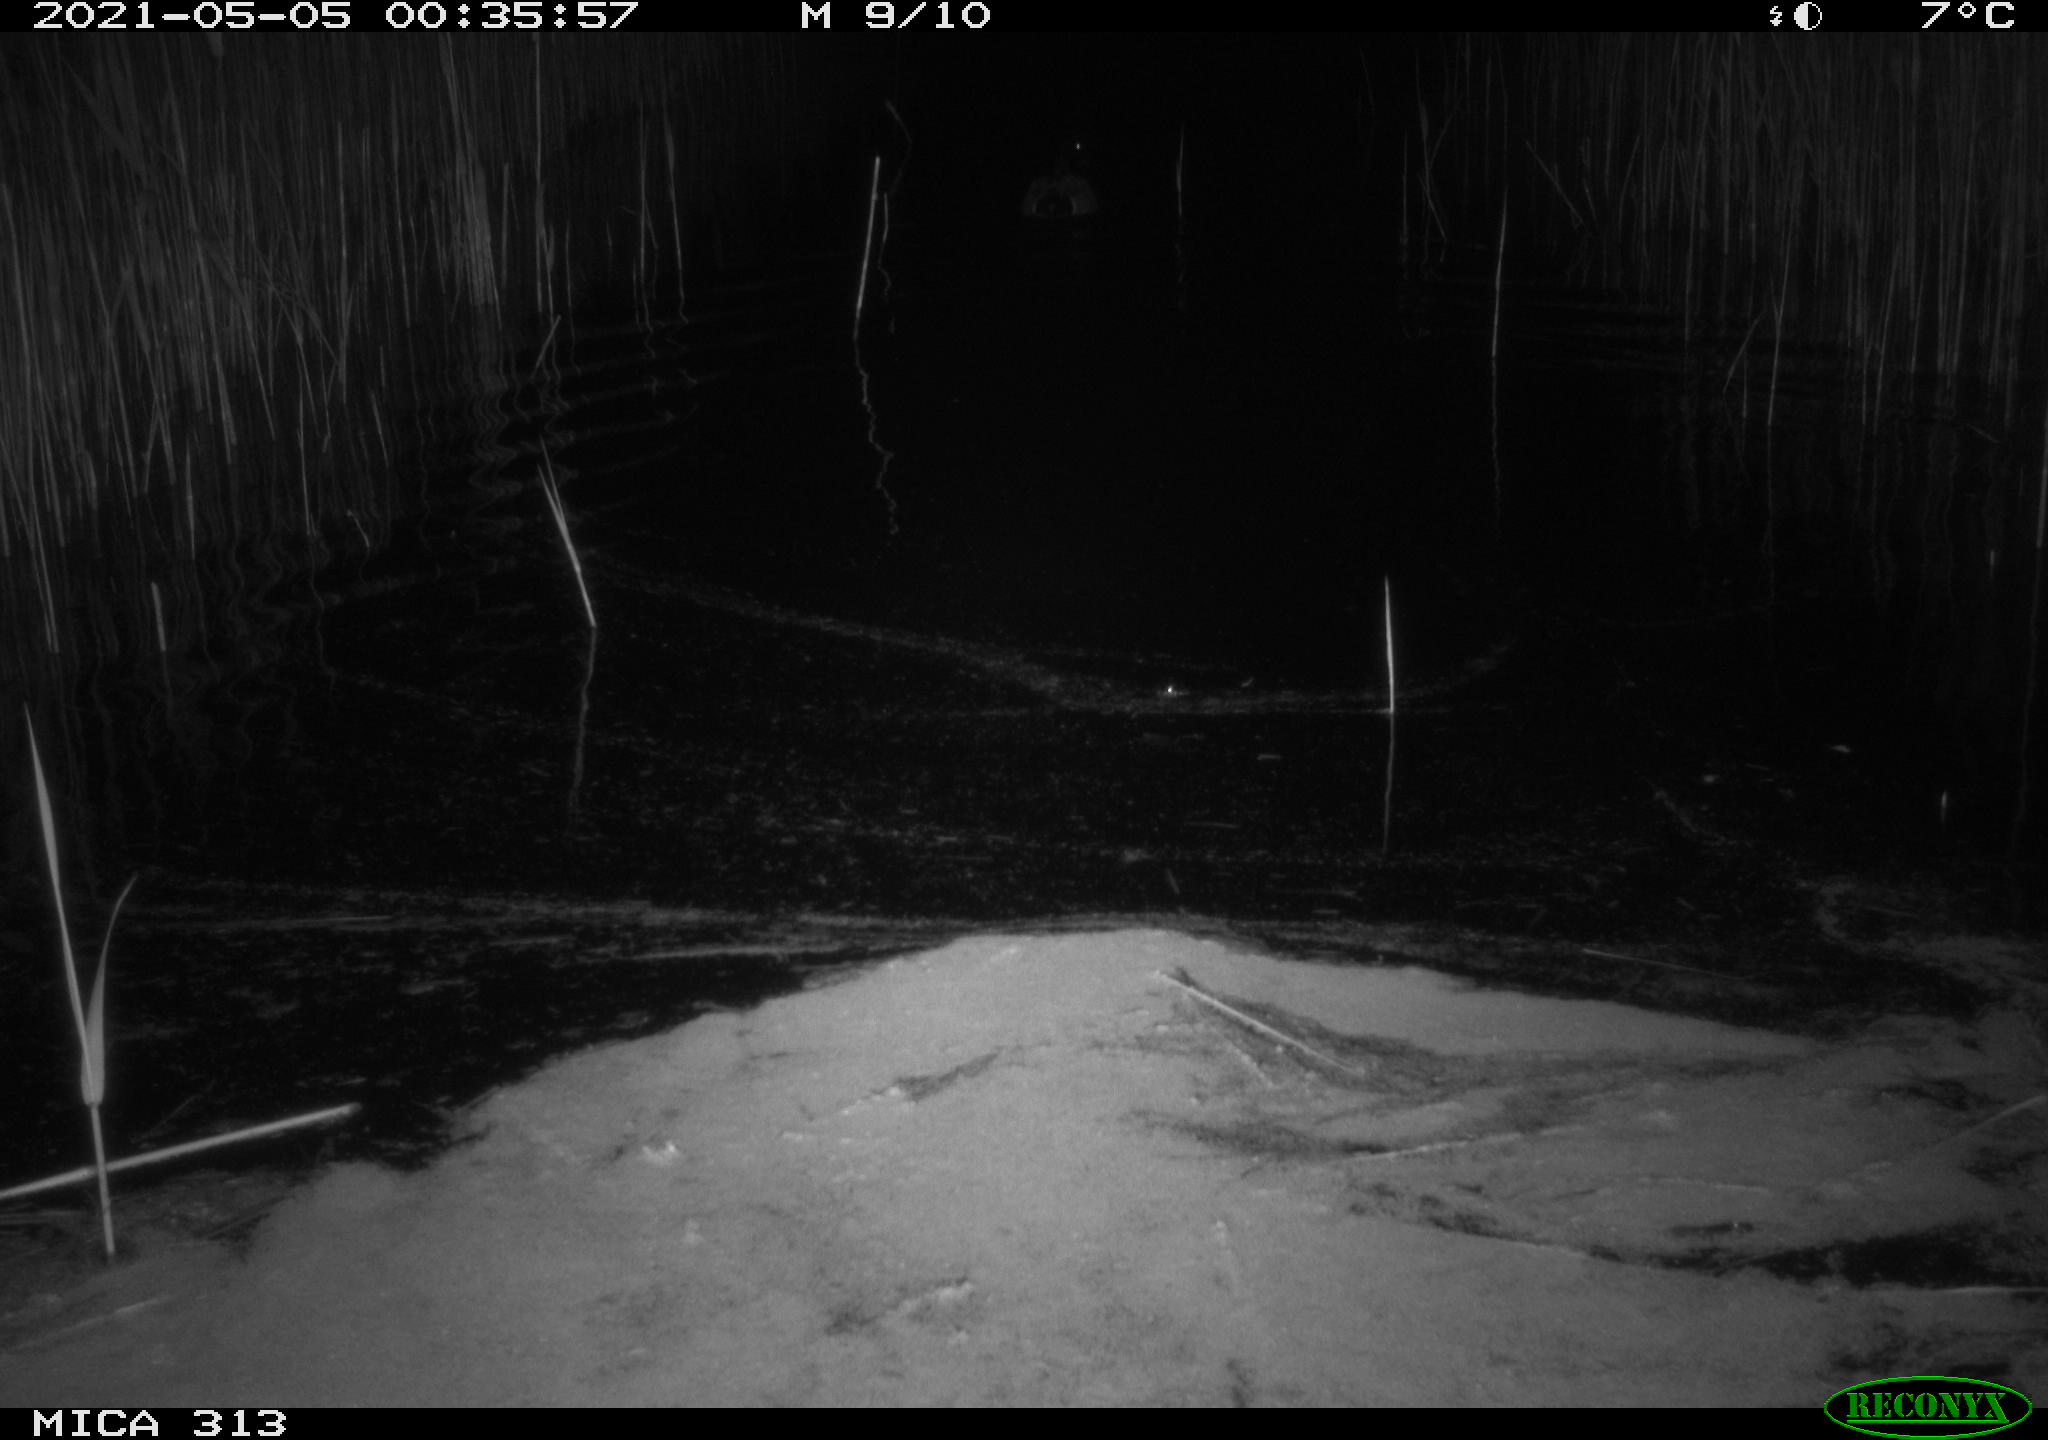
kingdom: Animalia
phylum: Chordata
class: Aves
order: Anseriformes
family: Anatidae
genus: Anas
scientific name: Anas platyrhynchos
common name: Mallard
